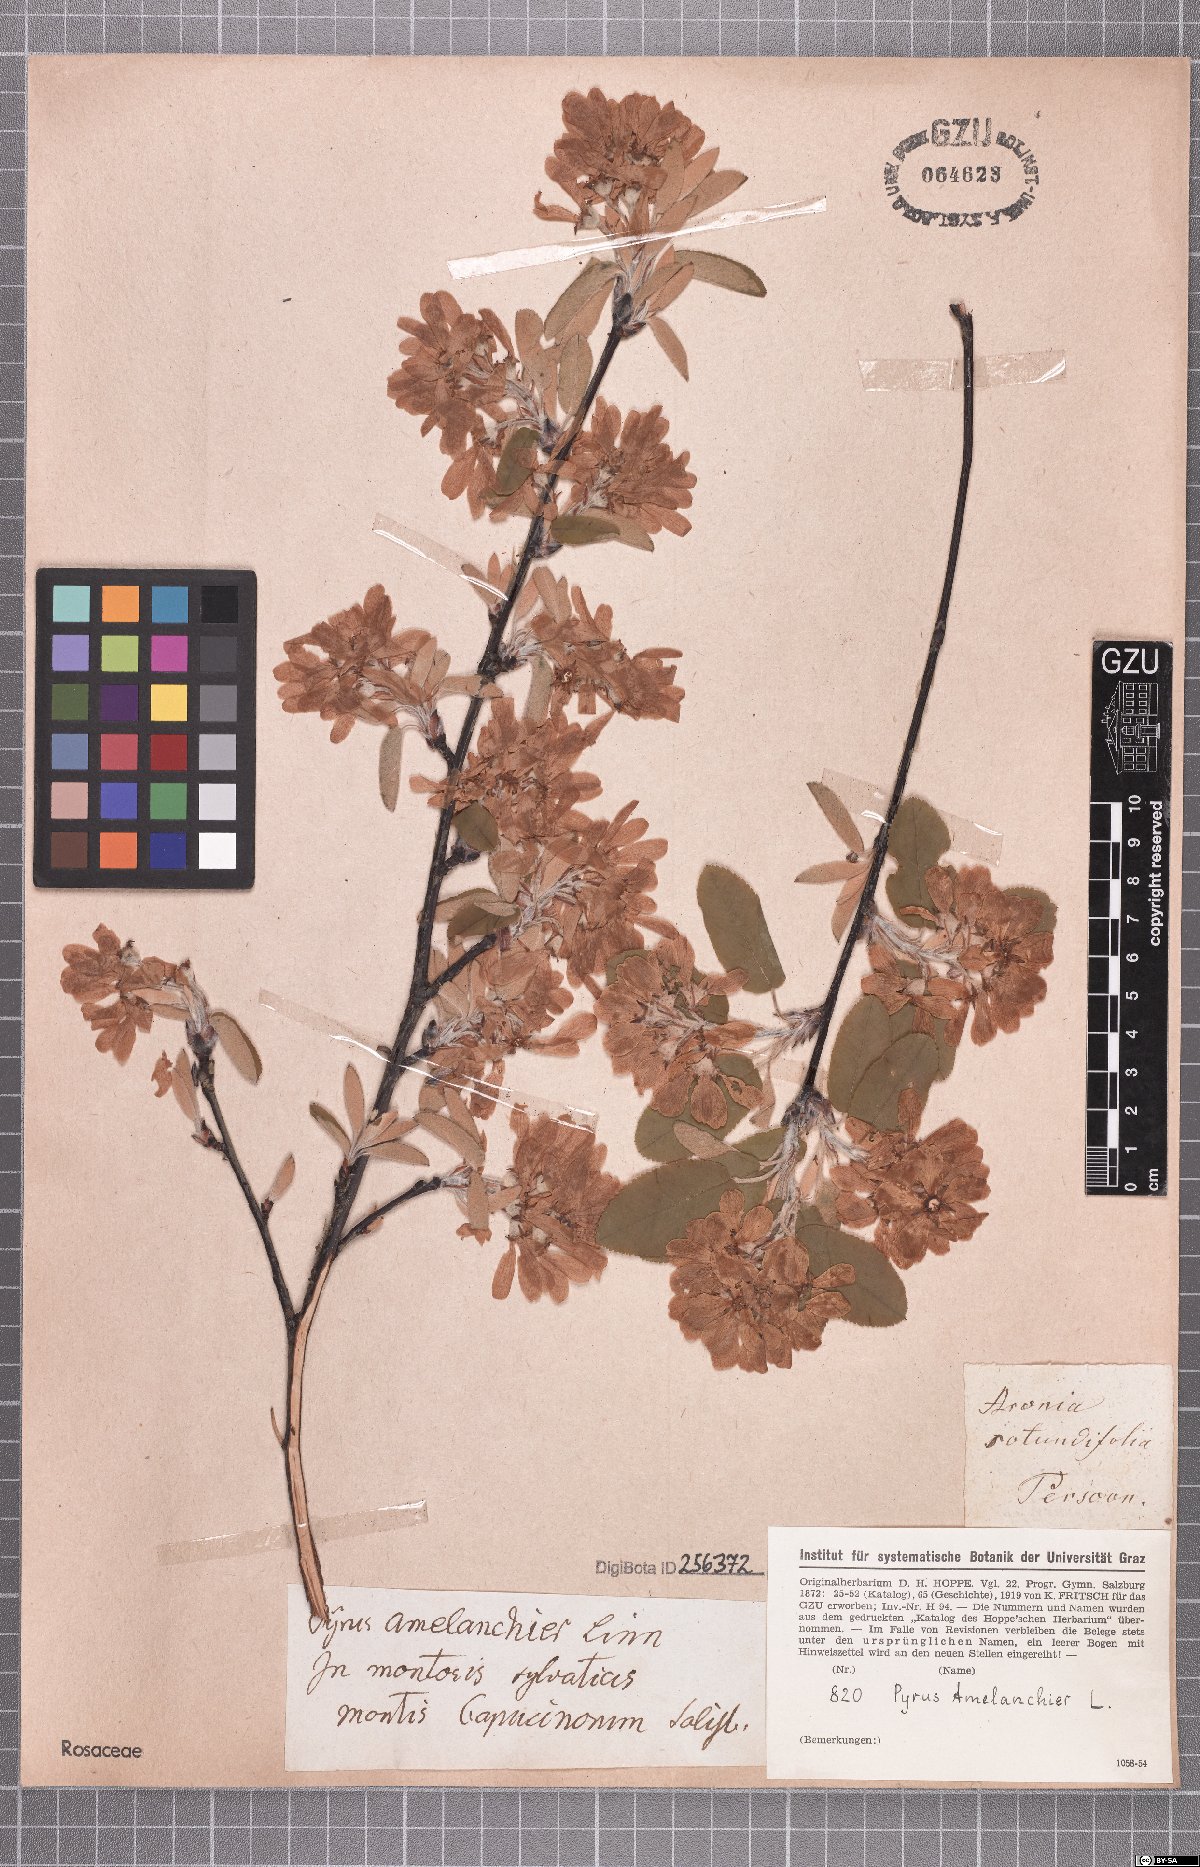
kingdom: Plantae
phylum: Tracheophyta
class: Magnoliopsida
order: Rosales
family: Rosaceae
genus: Amelanchier
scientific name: Amelanchier ovalis
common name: Serviceberry
